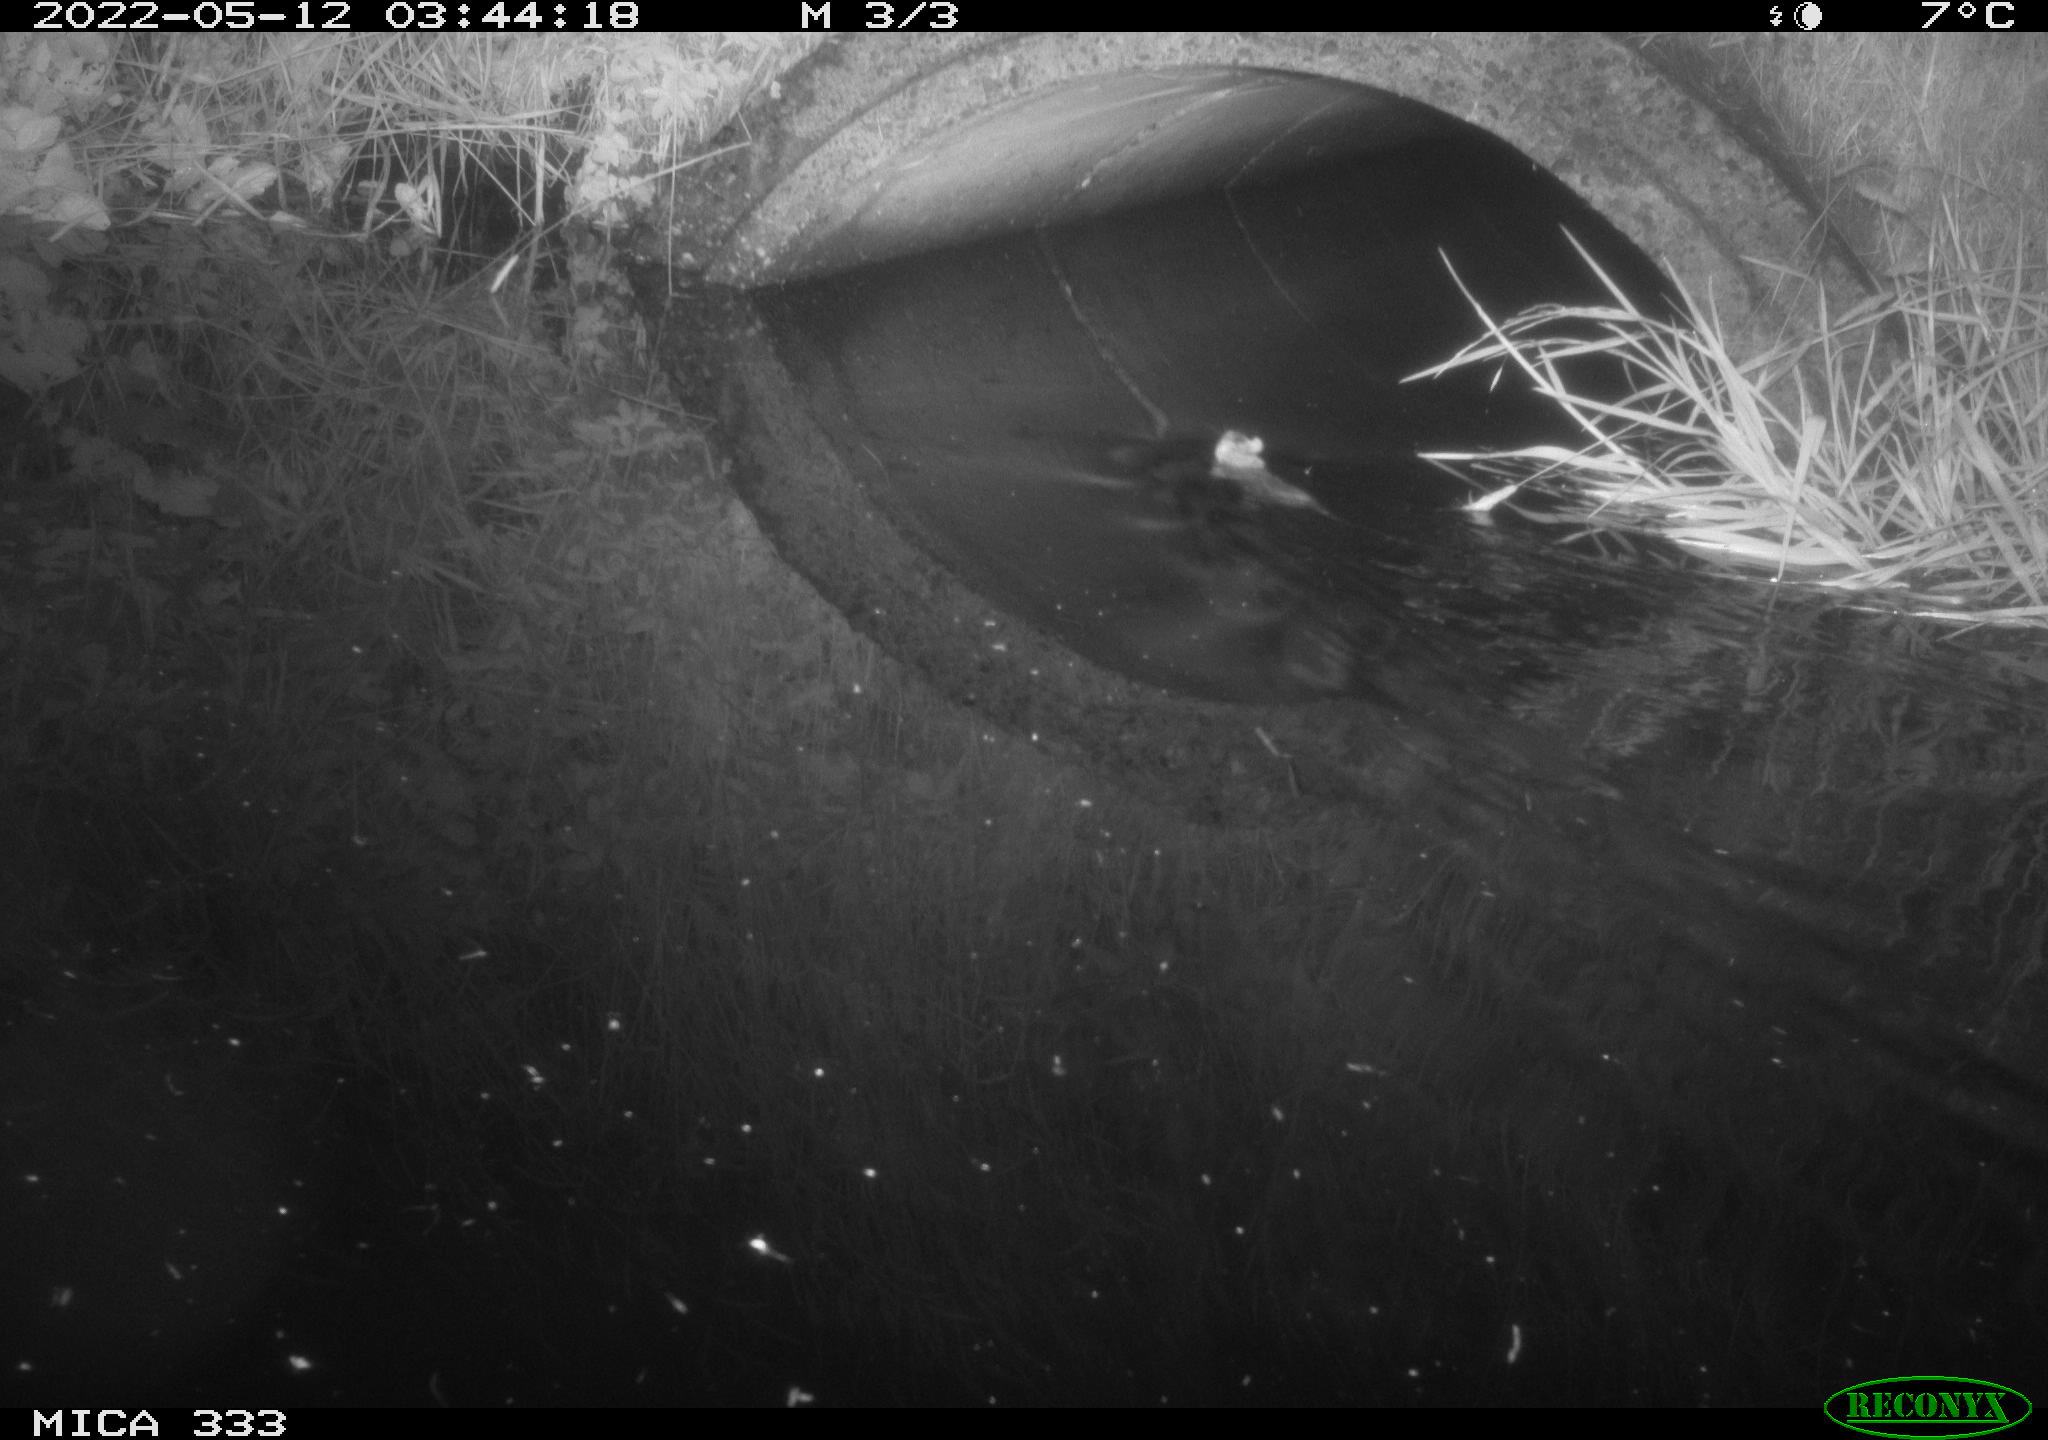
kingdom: Animalia
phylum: Chordata
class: Mammalia
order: Rodentia
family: Muridae
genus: Rattus
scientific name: Rattus norvegicus
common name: Brown rat
